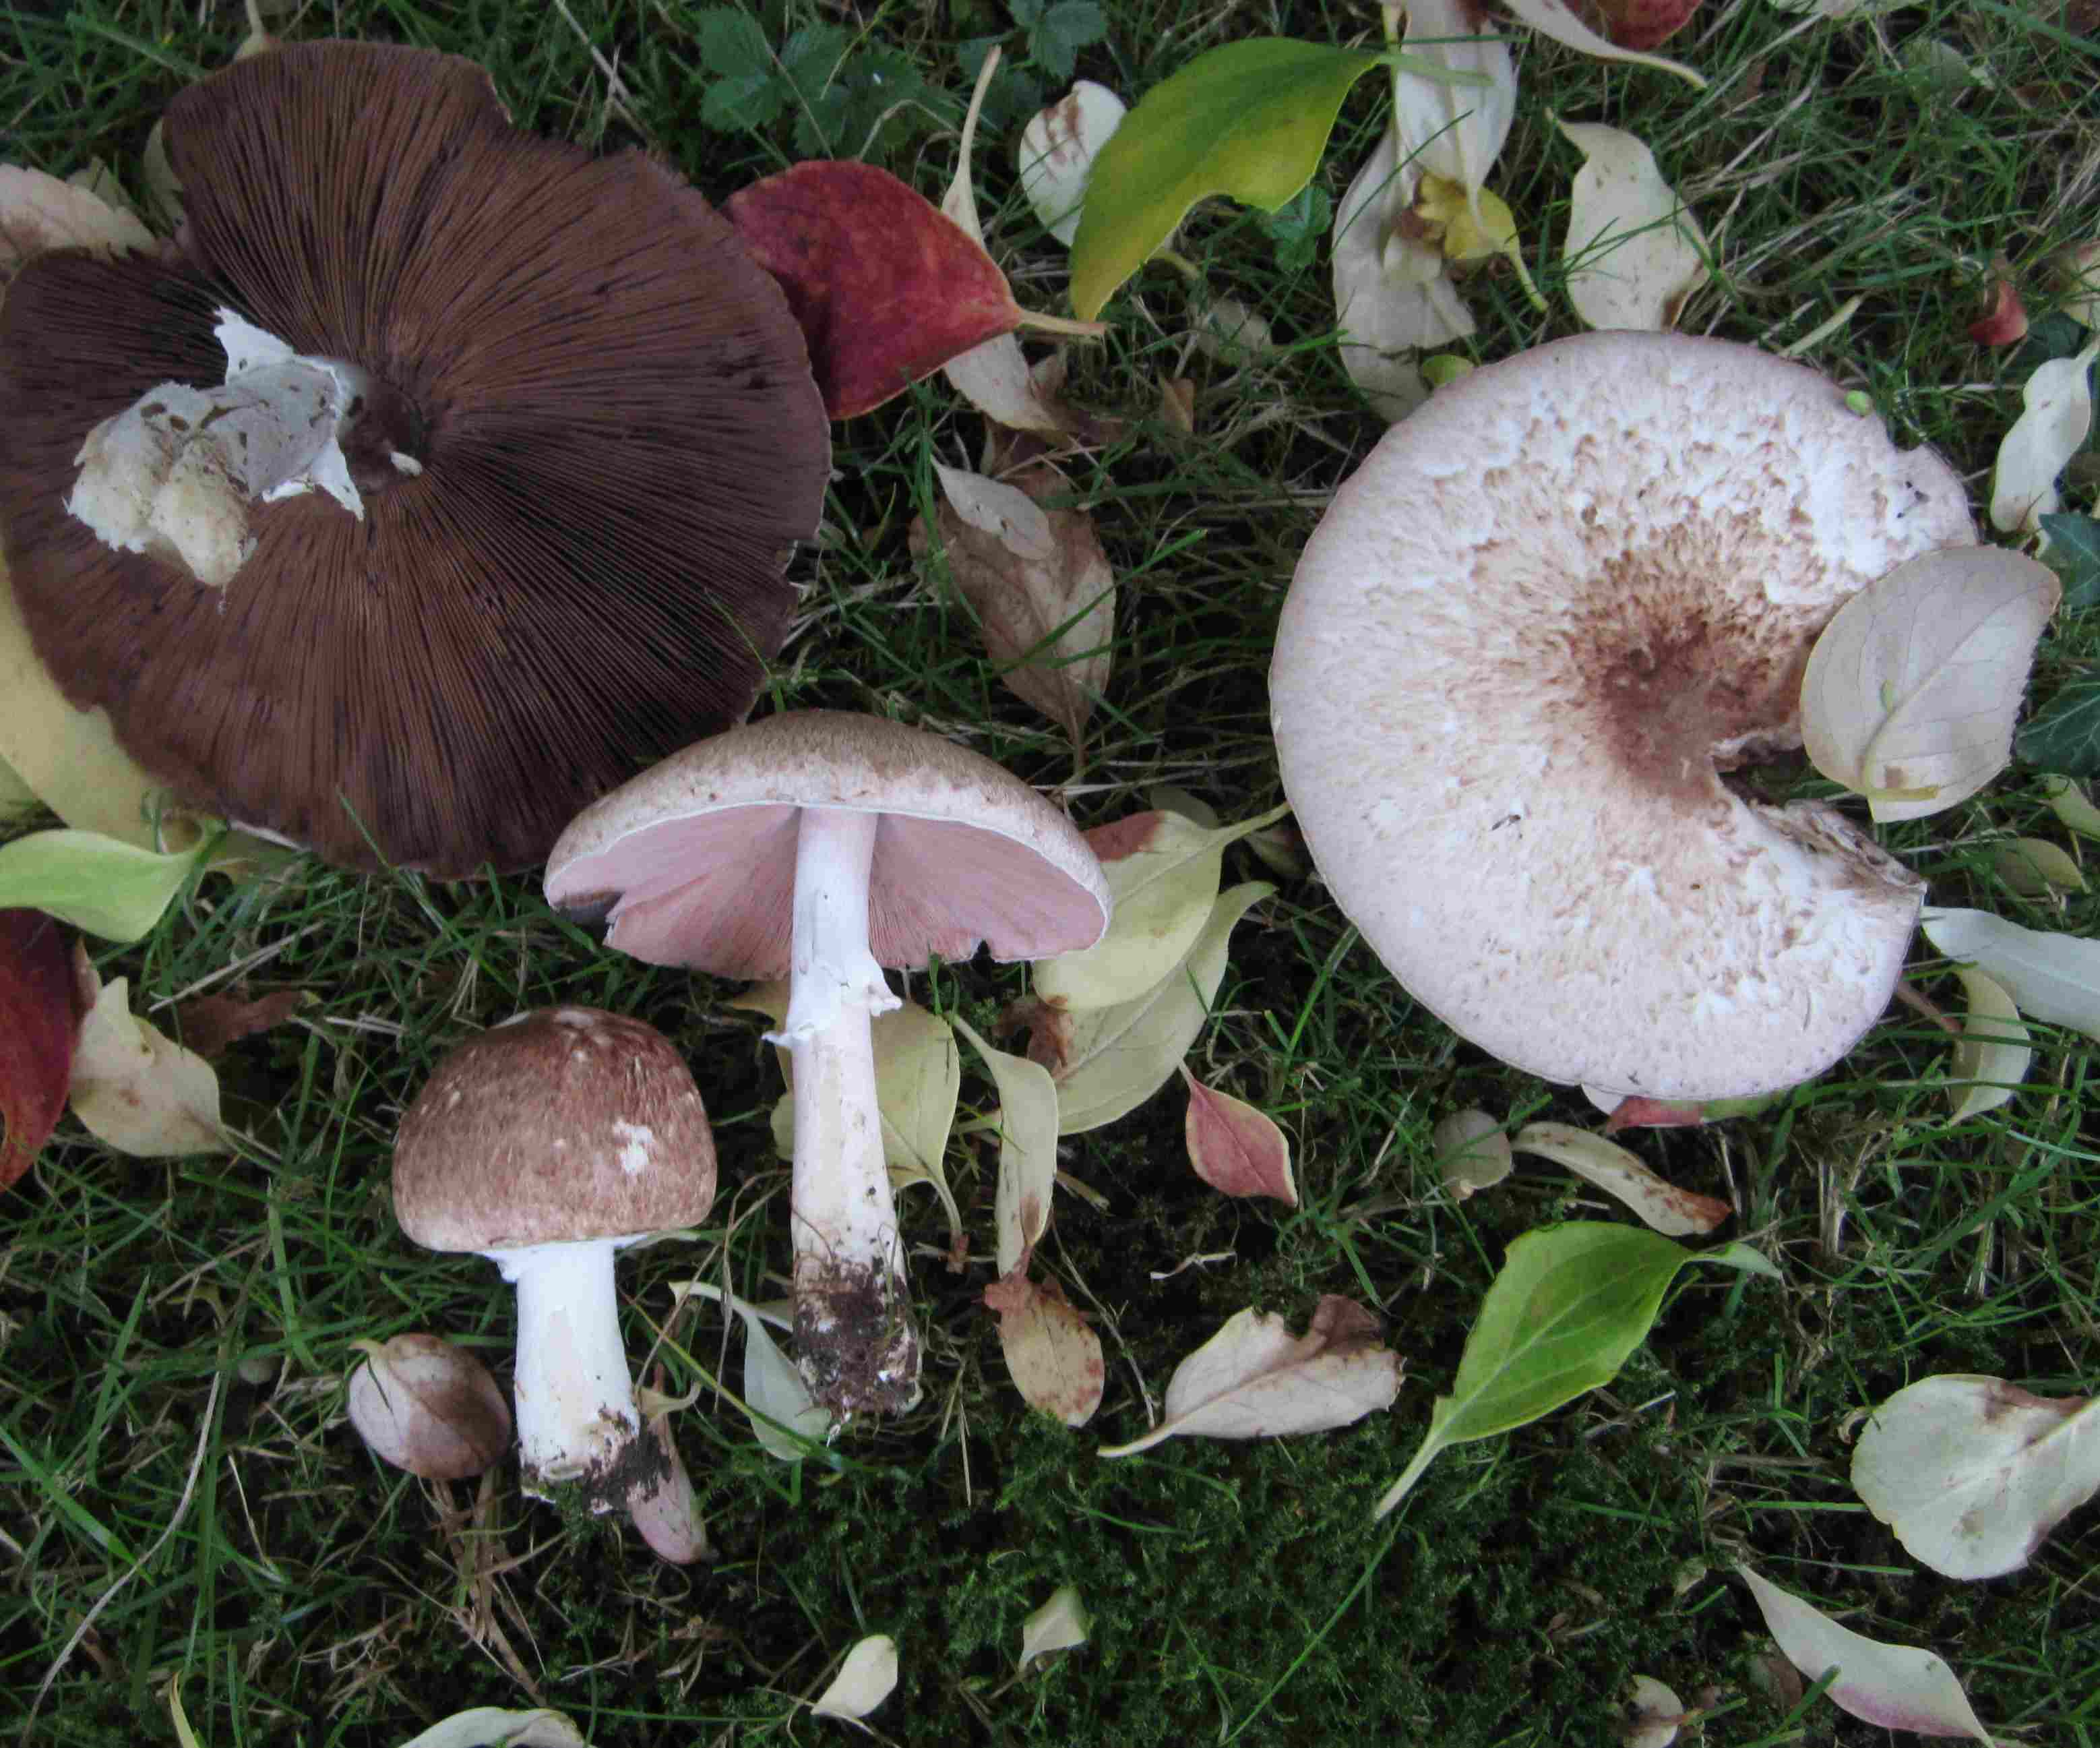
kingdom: Fungi
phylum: Basidiomycota
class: Agaricomycetes
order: Agaricales
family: Agaricaceae
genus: Agaricus
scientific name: Agaricus impudicus
